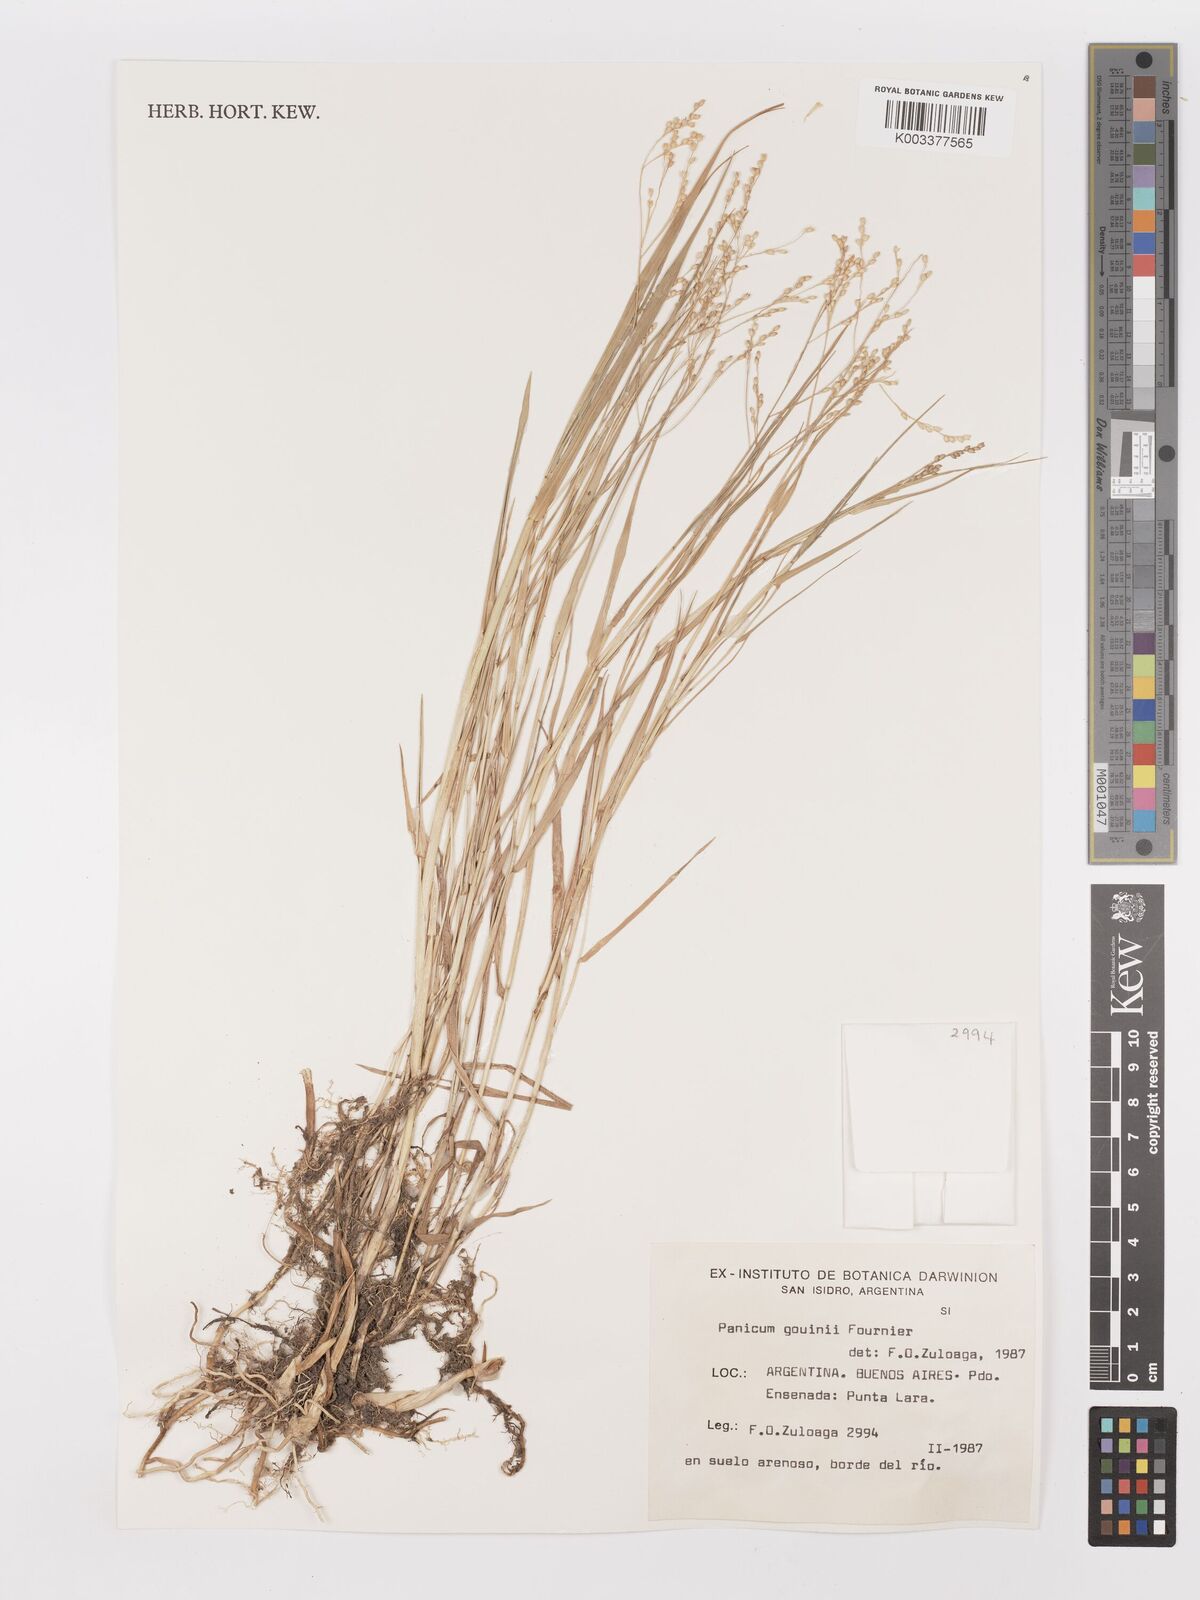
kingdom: Plantae
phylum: Tracheophyta
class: Liliopsida
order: Poales
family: Poaceae
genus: Urochloa
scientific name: Urochloa rudis
